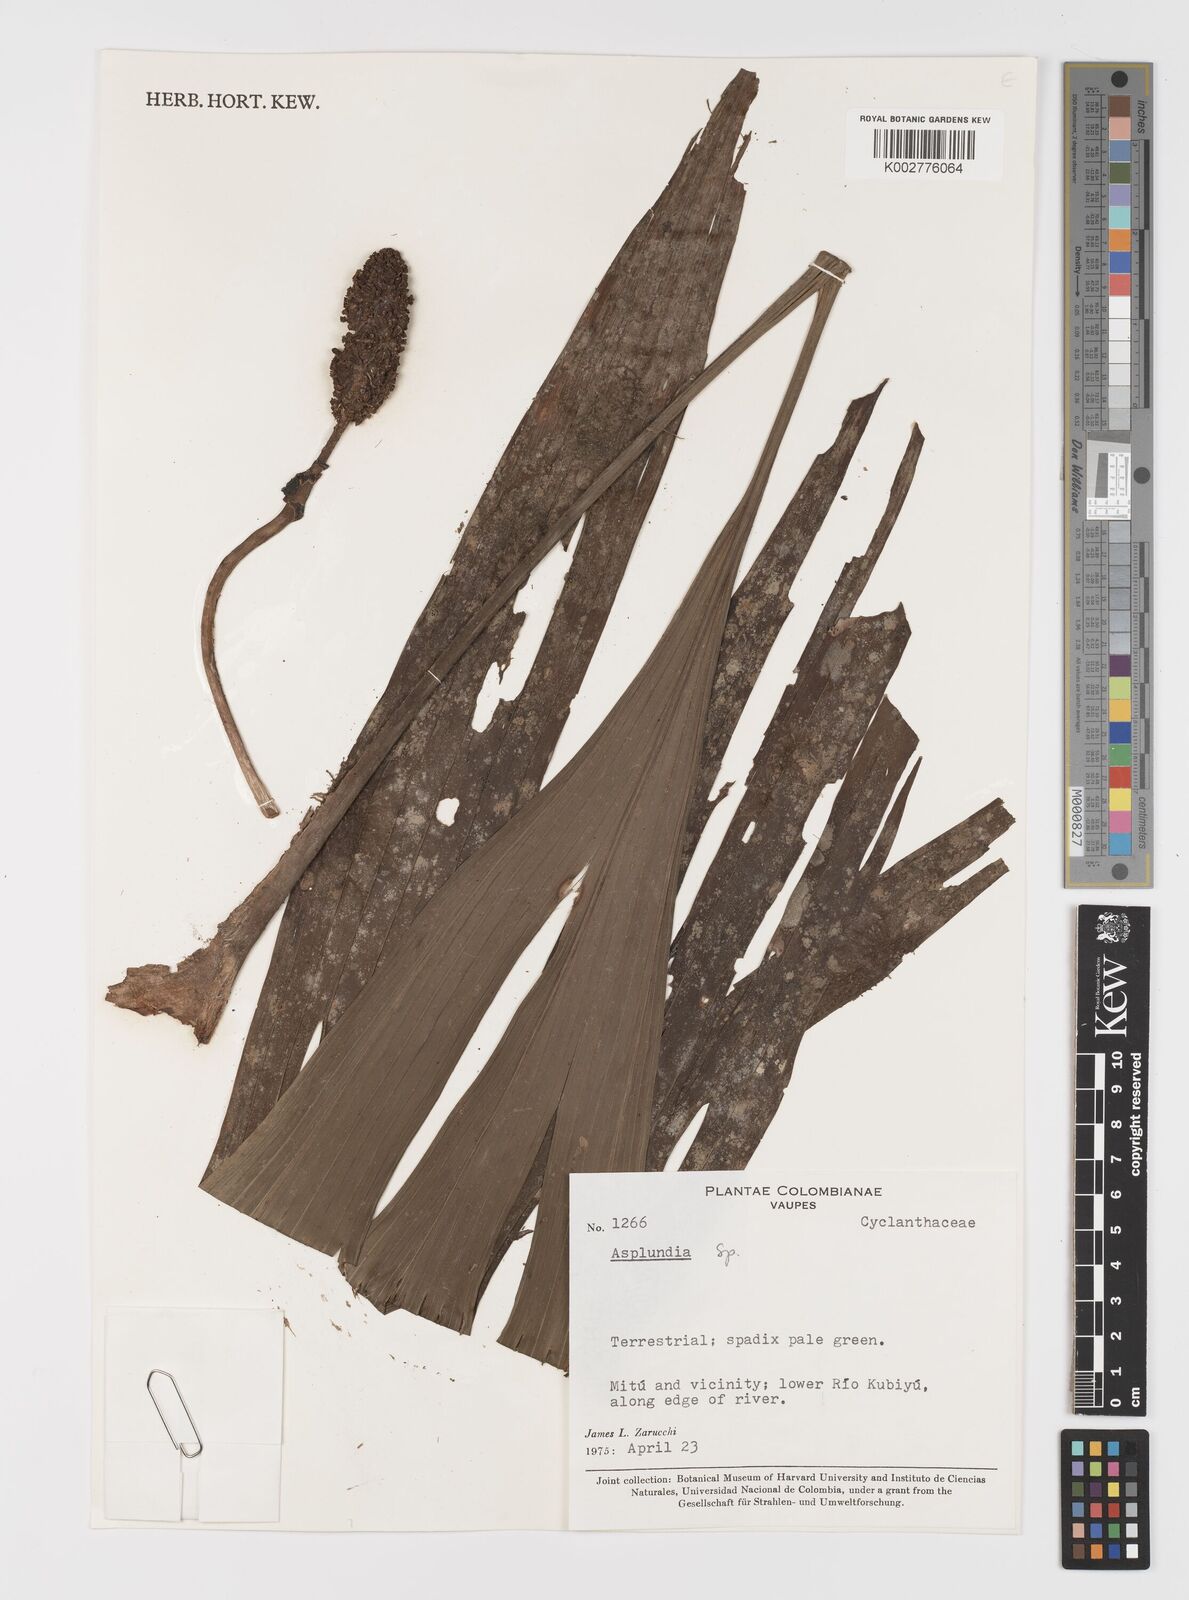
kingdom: Plantae
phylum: Tracheophyta
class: Liliopsida
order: Pandanales
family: Cyclanthaceae
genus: Asplundia
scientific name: Asplundia
